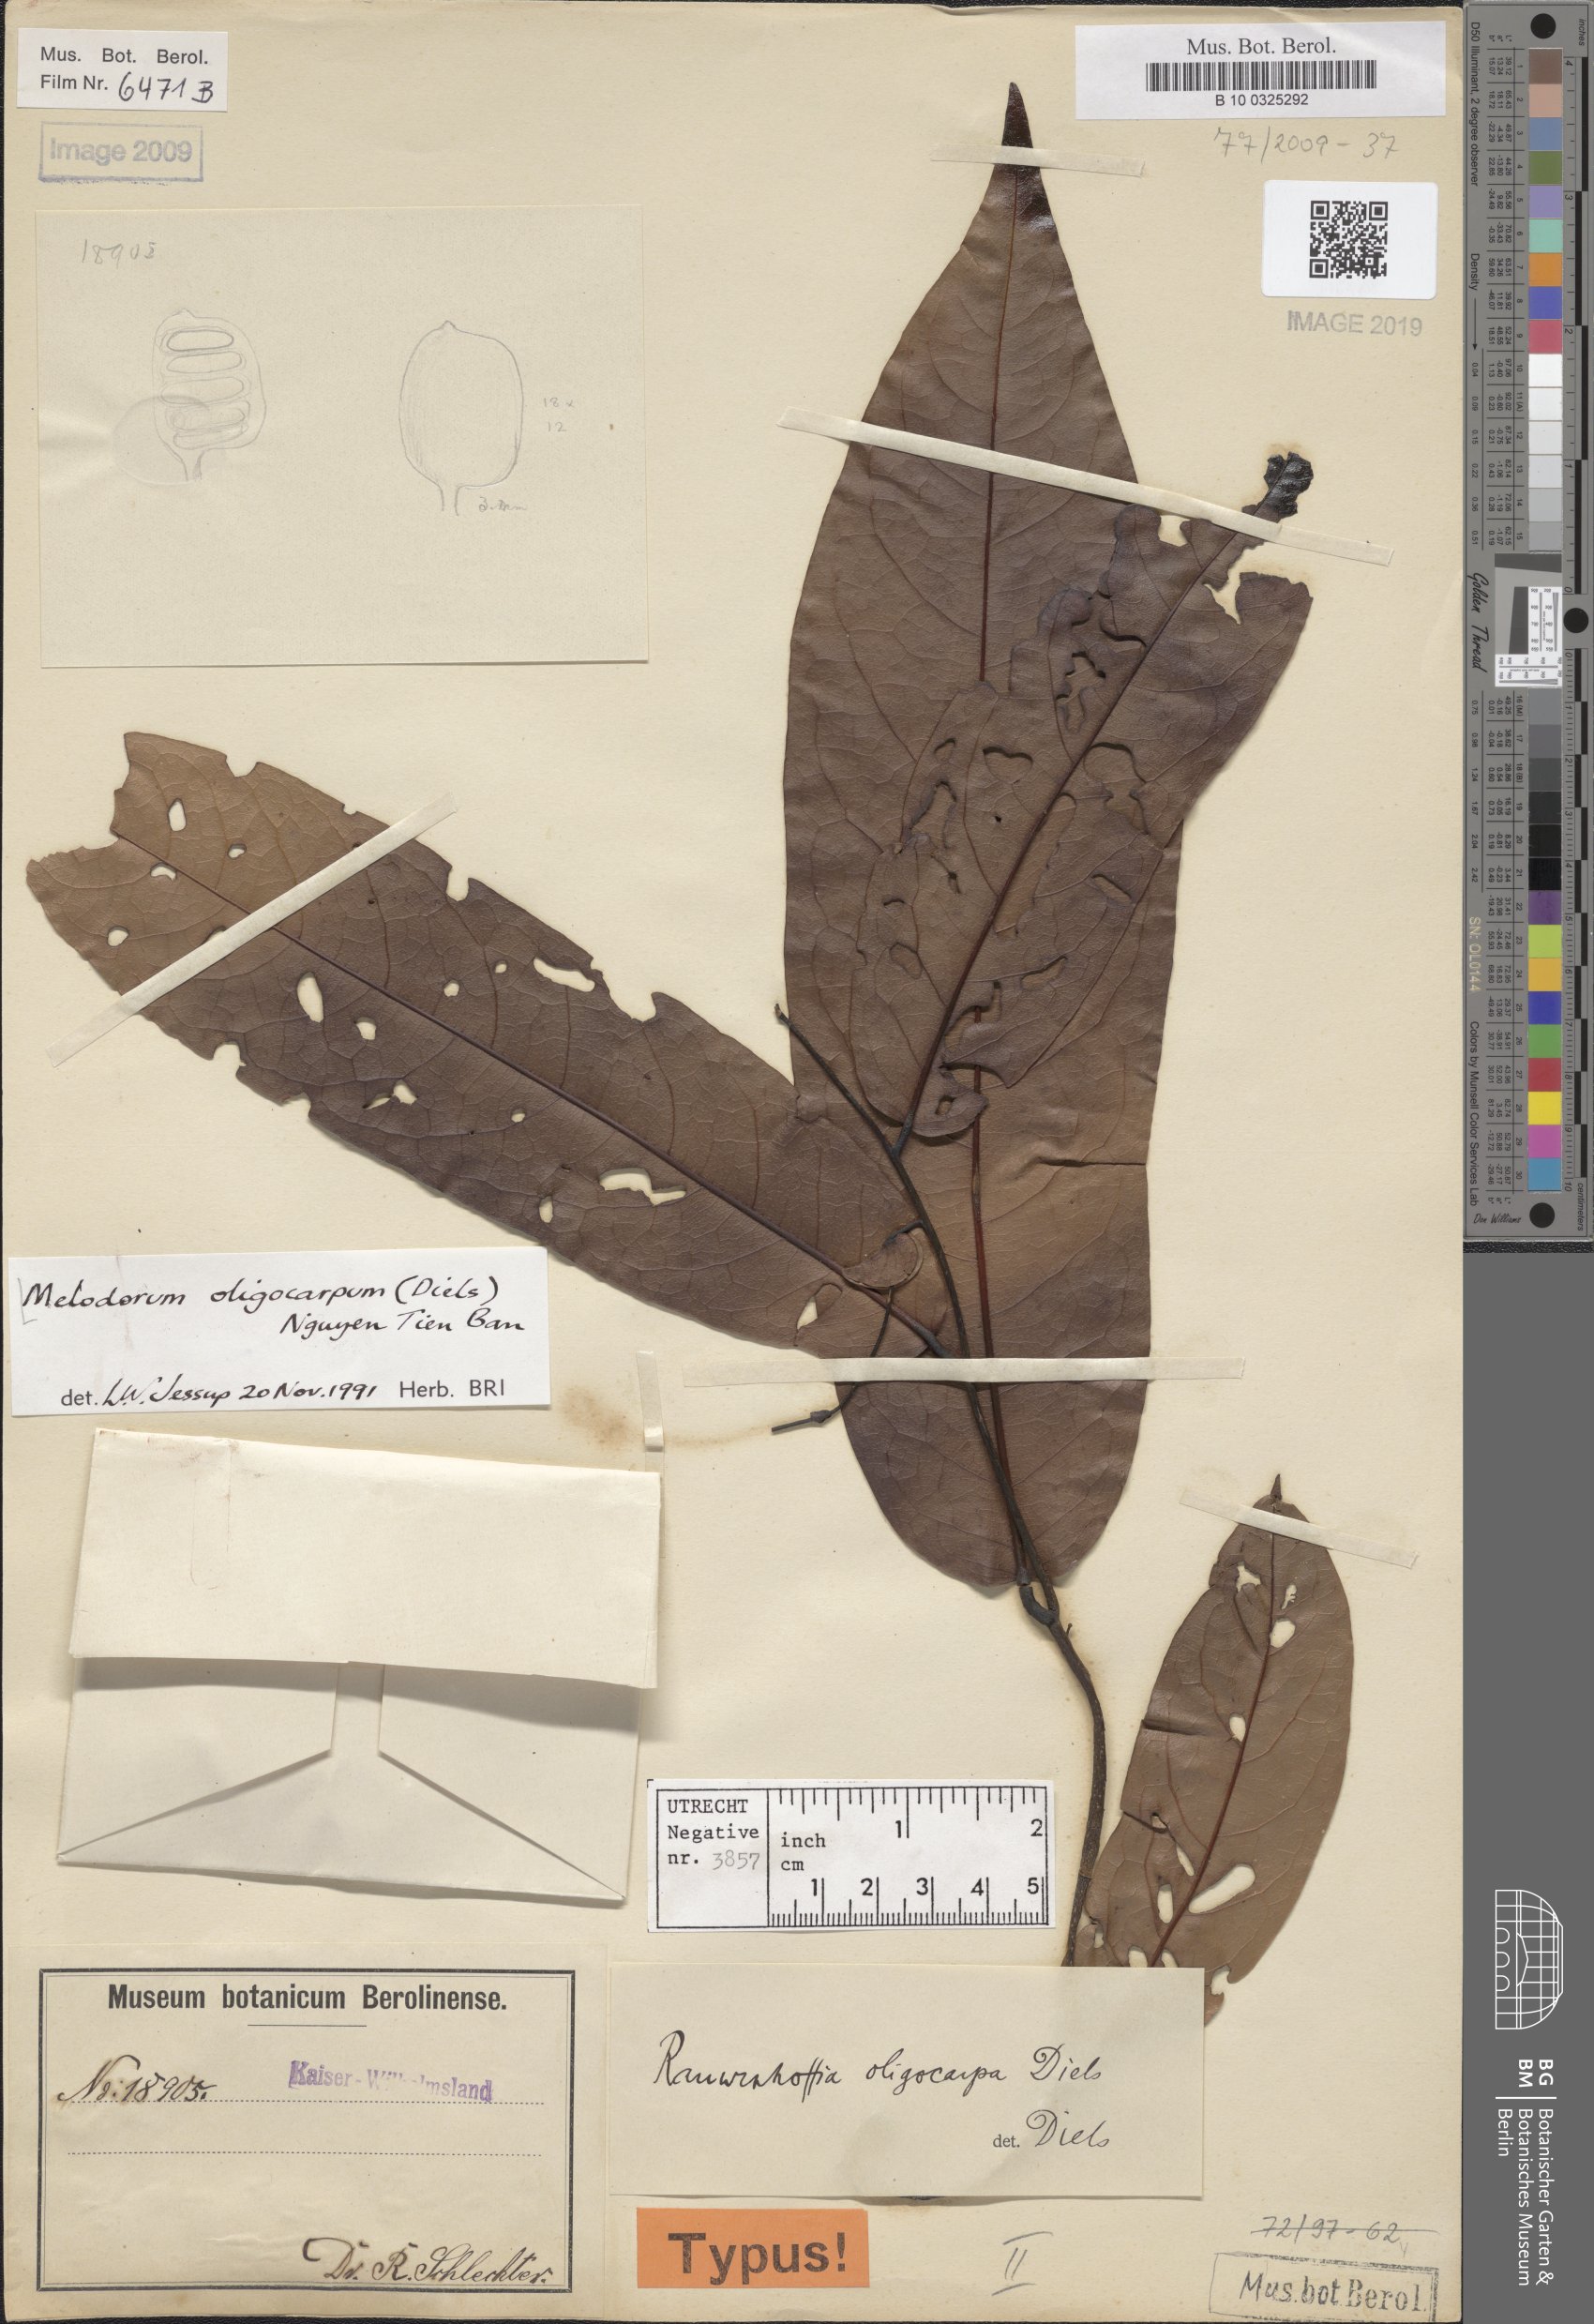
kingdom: Plantae
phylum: Tracheophyta
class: Magnoliopsida
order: Magnoliales
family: Annonaceae
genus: Uvaria
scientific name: Uvaria oligocarpa
